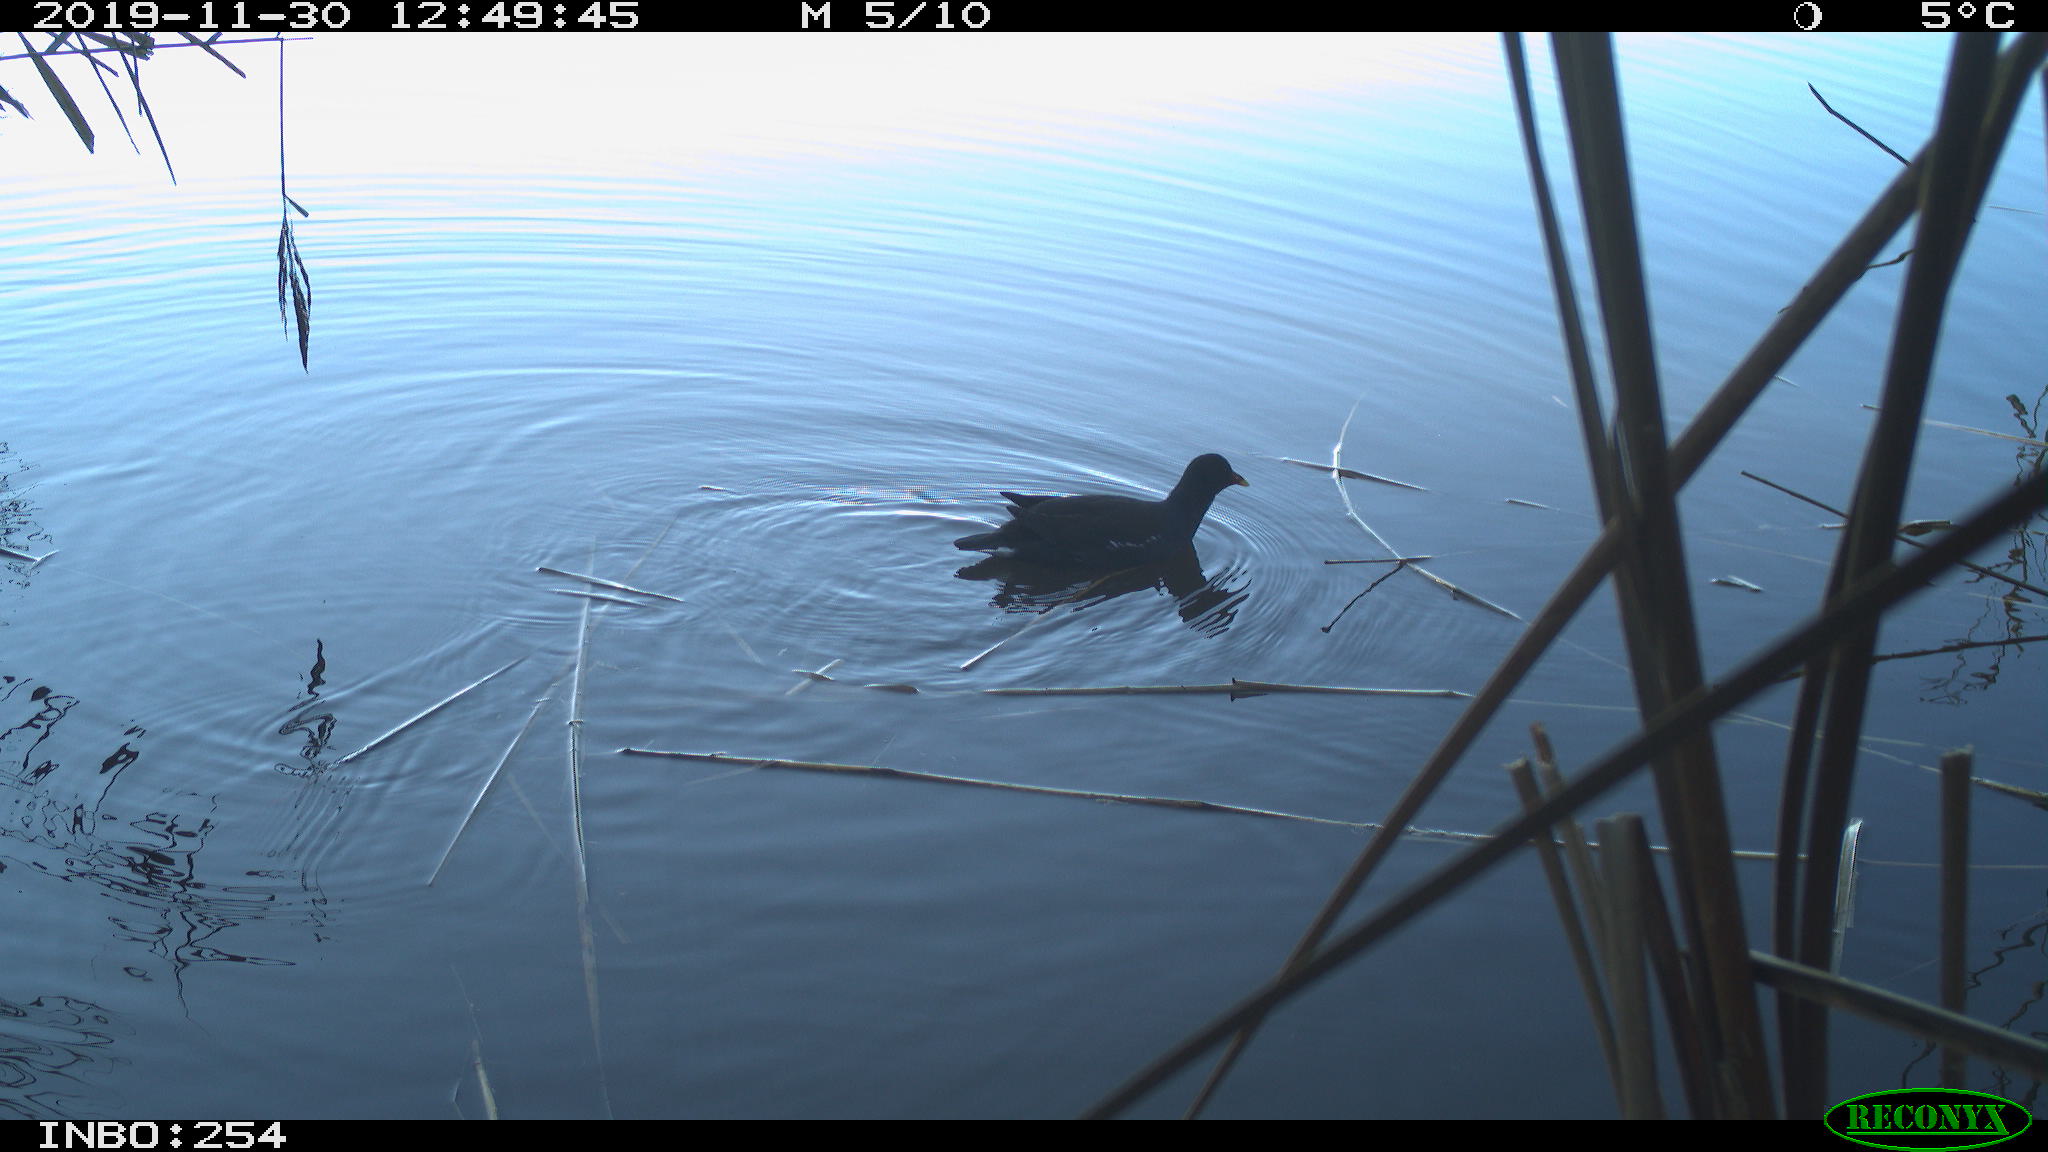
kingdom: Animalia
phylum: Chordata
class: Aves
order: Gruiformes
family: Rallidae
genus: Gallinula
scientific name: Gallinula chloropus
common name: Common moorhen
